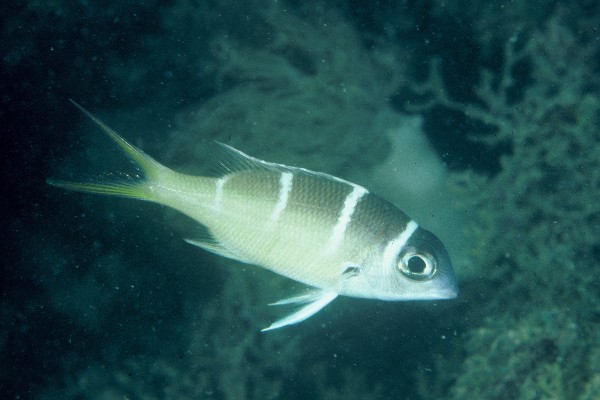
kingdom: Animalia
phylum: Chordata
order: Perciformes
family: Lethrinidae
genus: Monotaxis
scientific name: Monotaxis grandoculis
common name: Bigeye emperor
